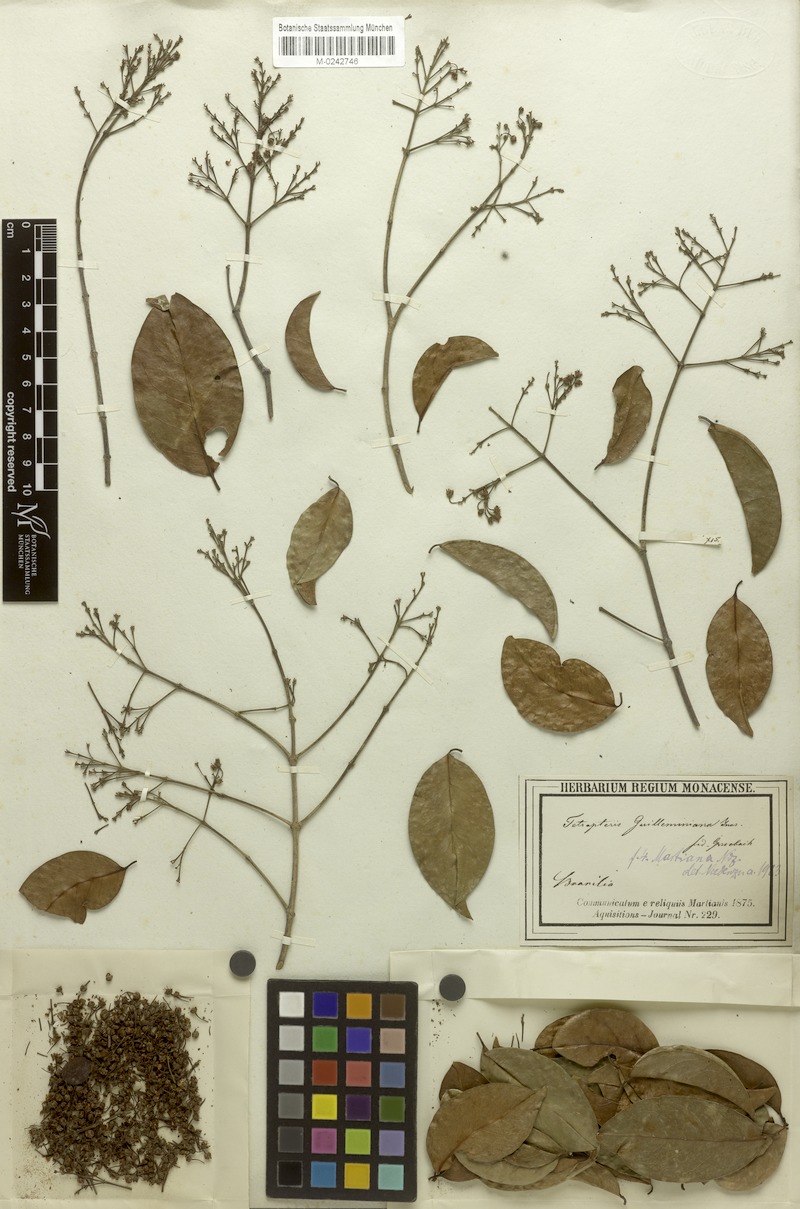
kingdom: Plantae
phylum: Tracheophyta
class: Magnoliopsida
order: Malpighiales
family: Malpighiaceae
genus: Niedenzuella
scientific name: Niedenzuella acutifolia
